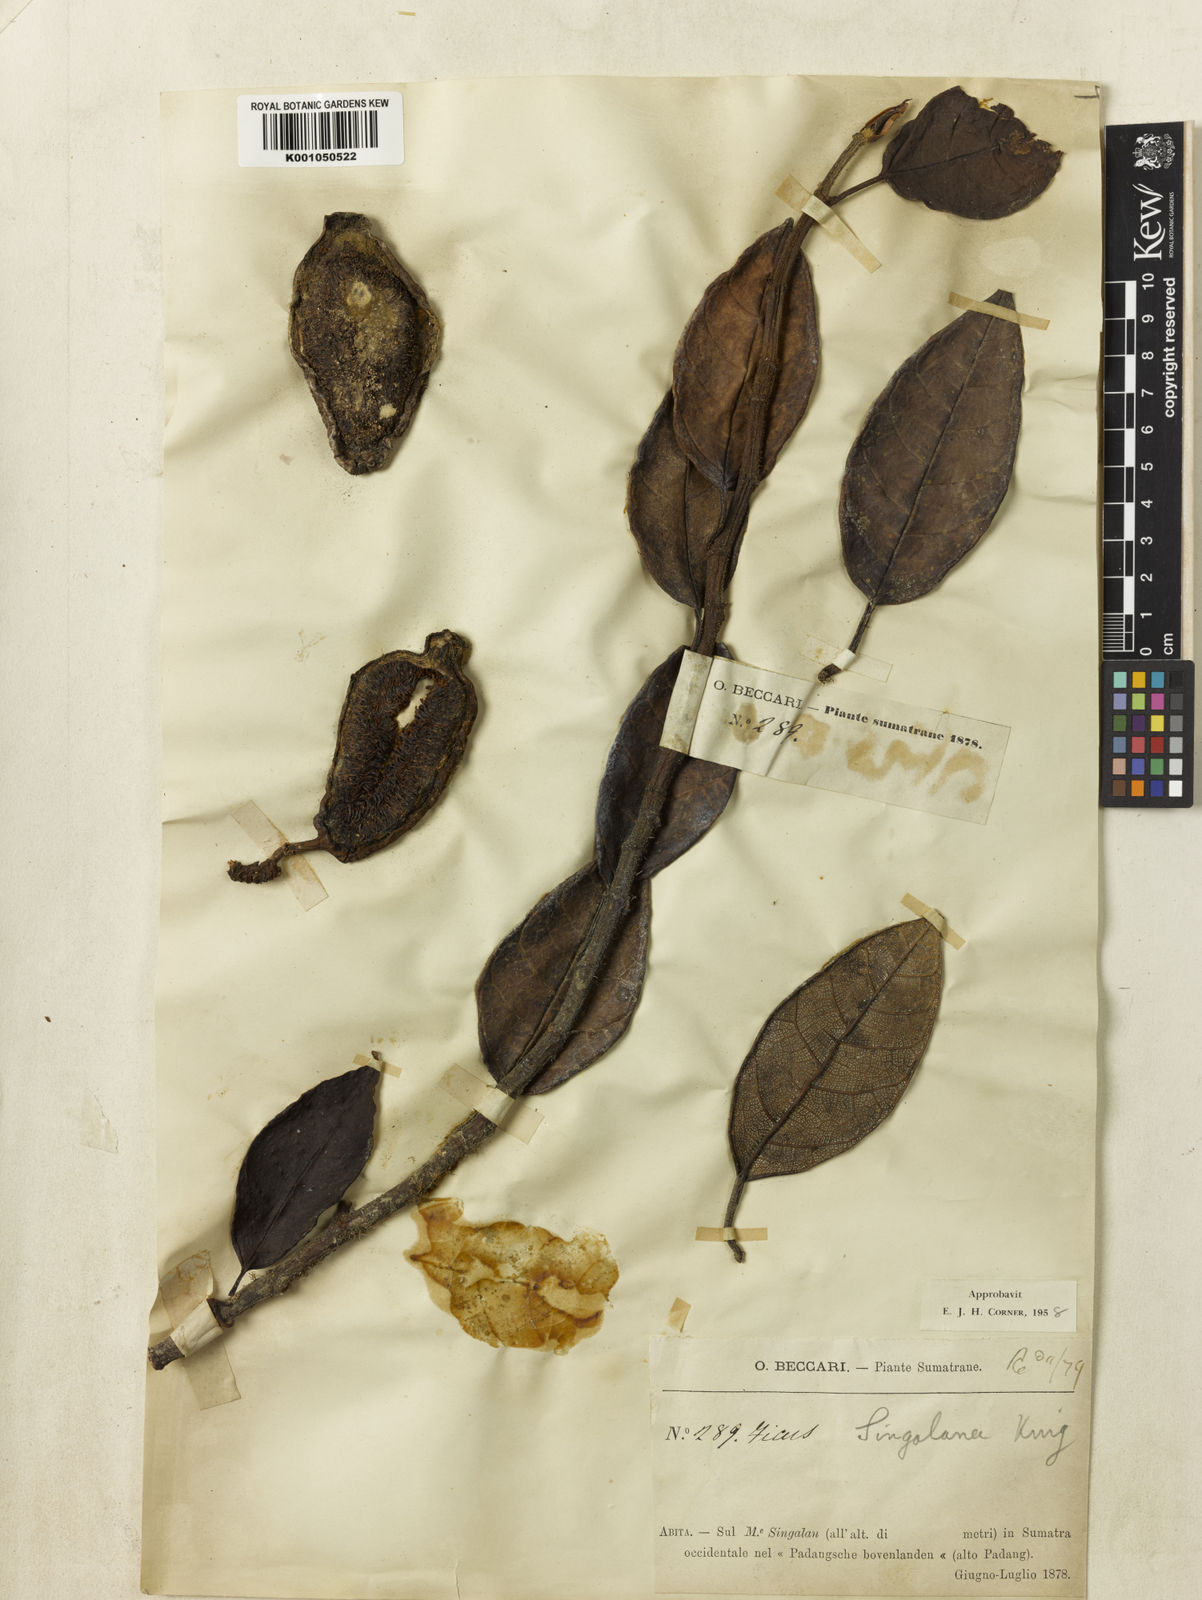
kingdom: Plantae
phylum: Tracheophyta
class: Magnoliopsida
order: Rosales
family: Moraceae
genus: Ficus
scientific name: Ficus singalana
